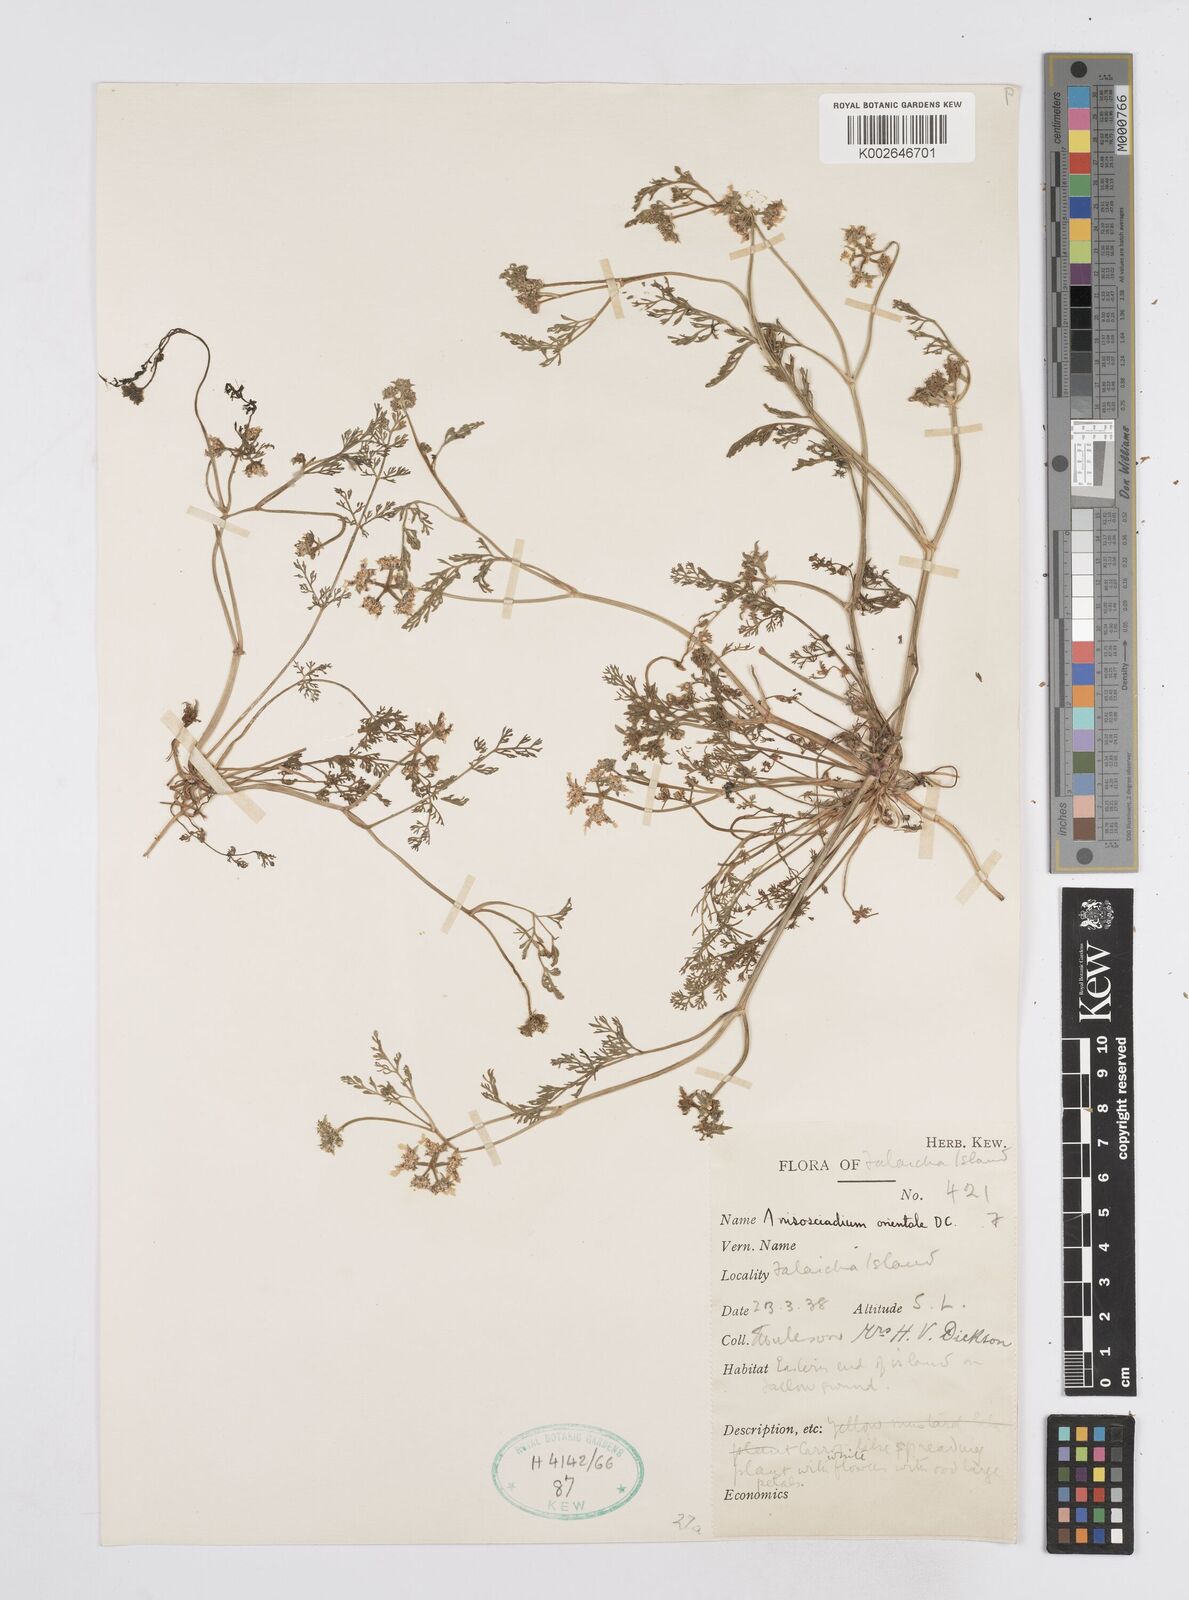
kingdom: Plantae
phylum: Tracheophyta
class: Magnoliopsida
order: Apiales
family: Apiaceae
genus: Anisosciadium
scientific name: Anisosciadium orientale
